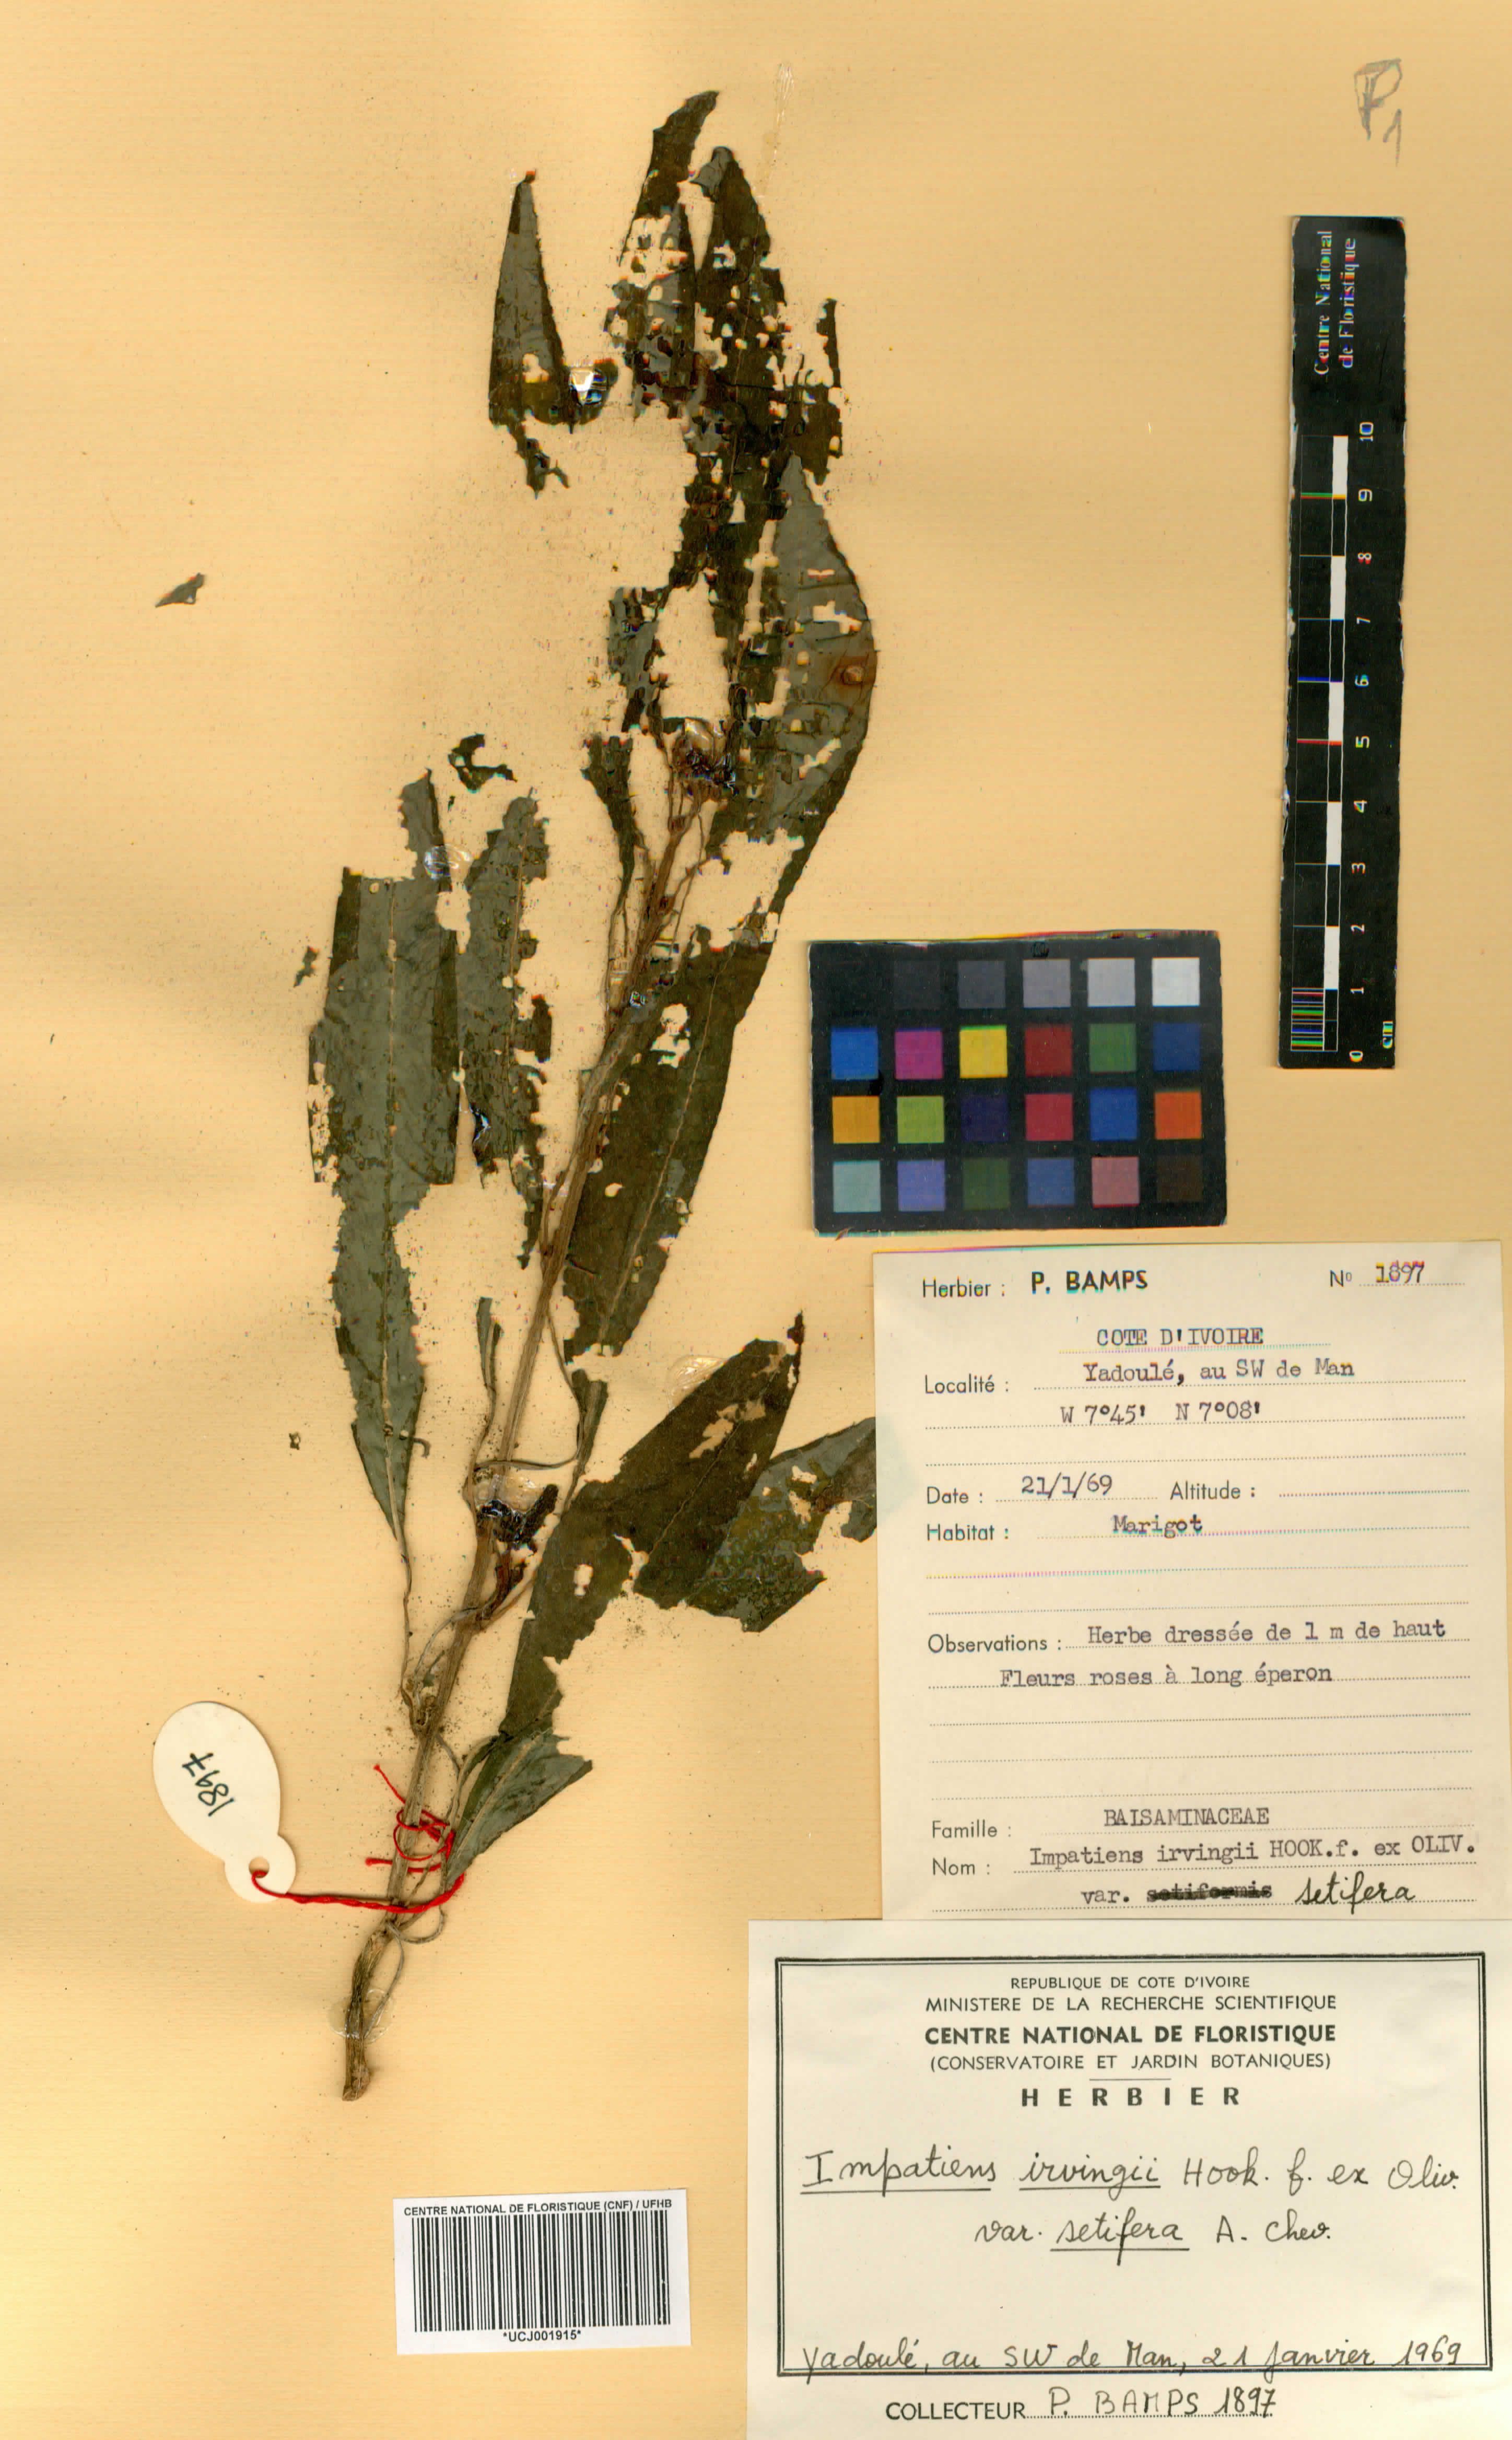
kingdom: Plantae
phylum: Tracheophyta
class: Magnoliopsida
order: Ericales
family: Balsaminaceae
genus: Impatiens
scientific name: Impatiens irvingii
